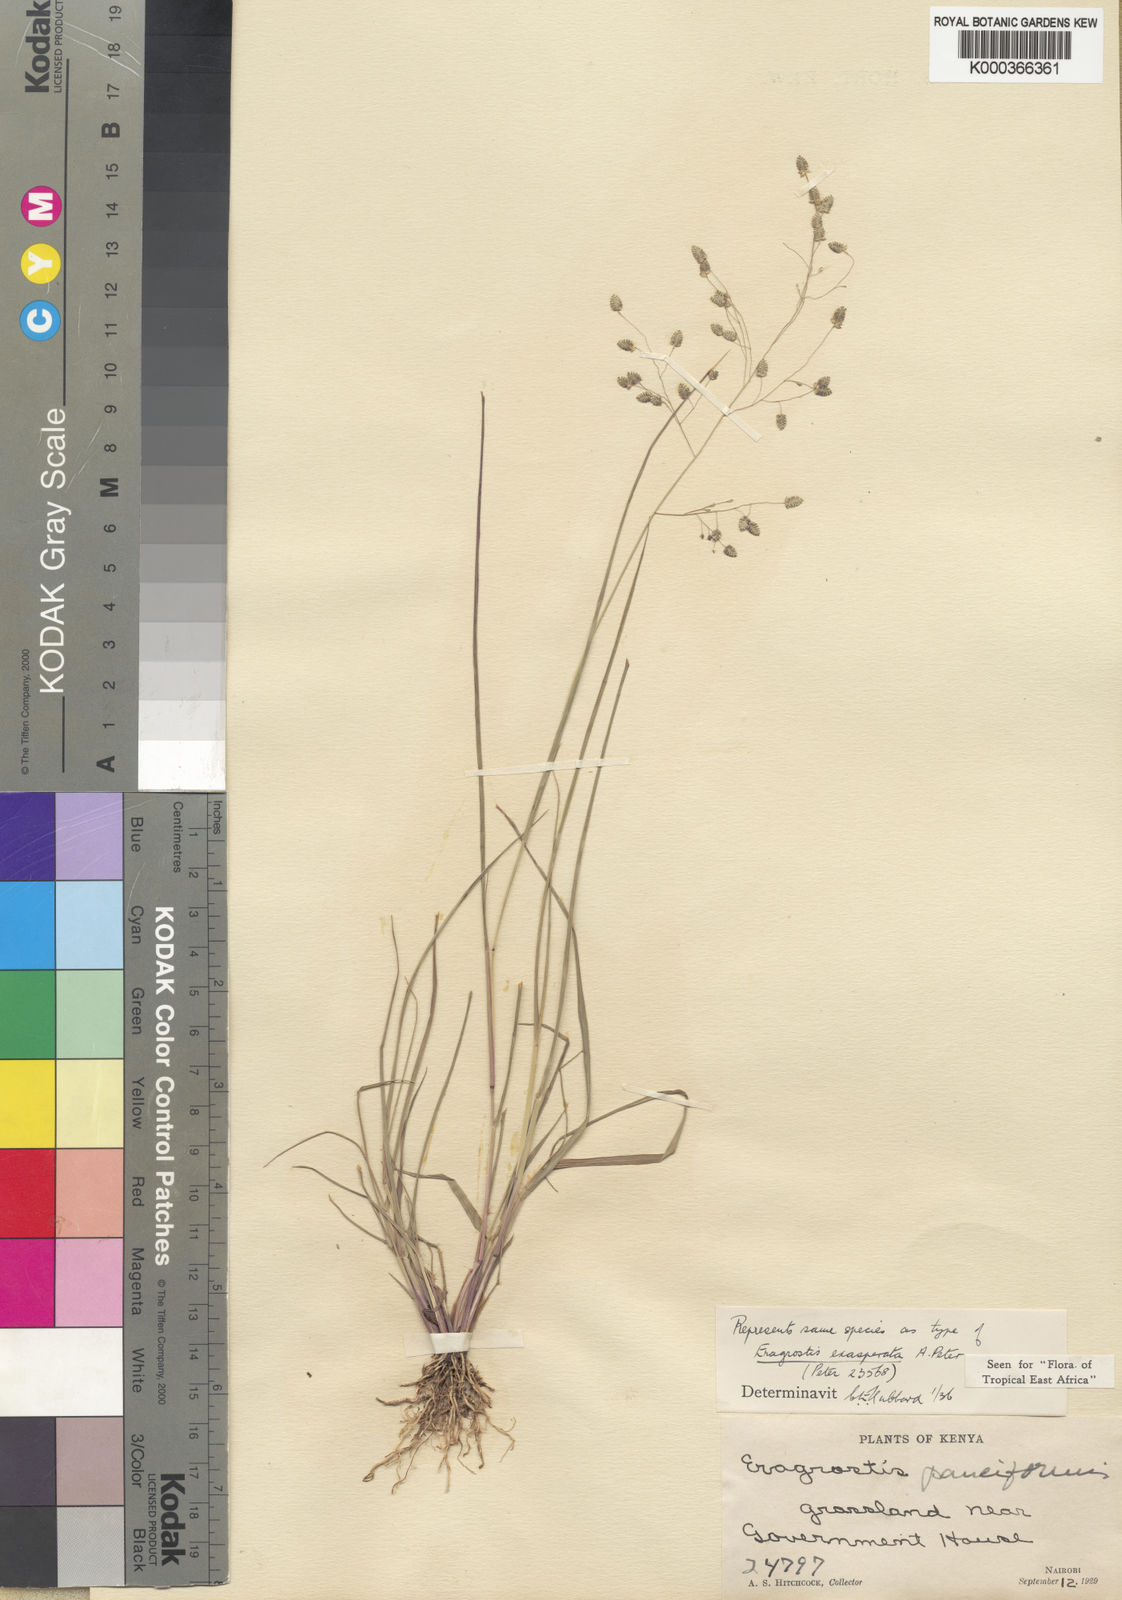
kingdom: Plantae
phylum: Tracheophyta
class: Liliopsida
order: Poales
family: Poaceae
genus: Eragrostis
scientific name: Eragrostis exasperata
